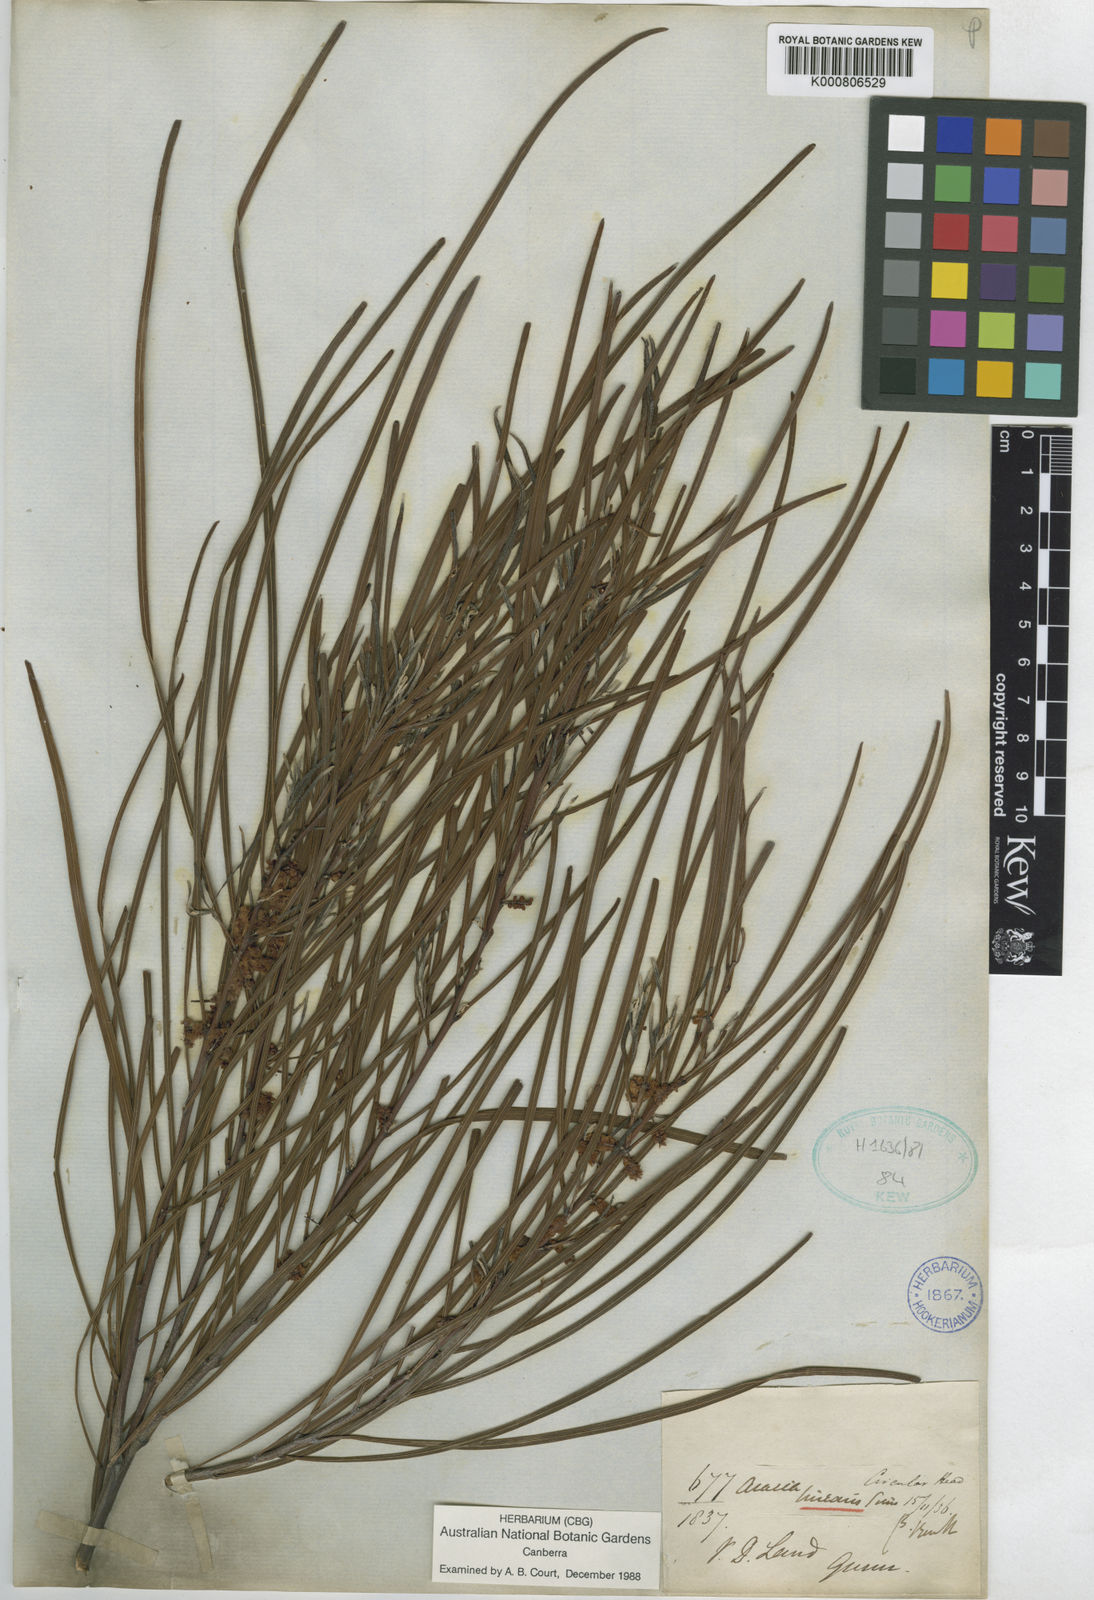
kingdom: Plantae
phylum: Tracheophyta
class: Magnoliopsida
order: Fabales
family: Fabaceae
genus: Acacia
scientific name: Acacia longissima
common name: Longleaf wattle
